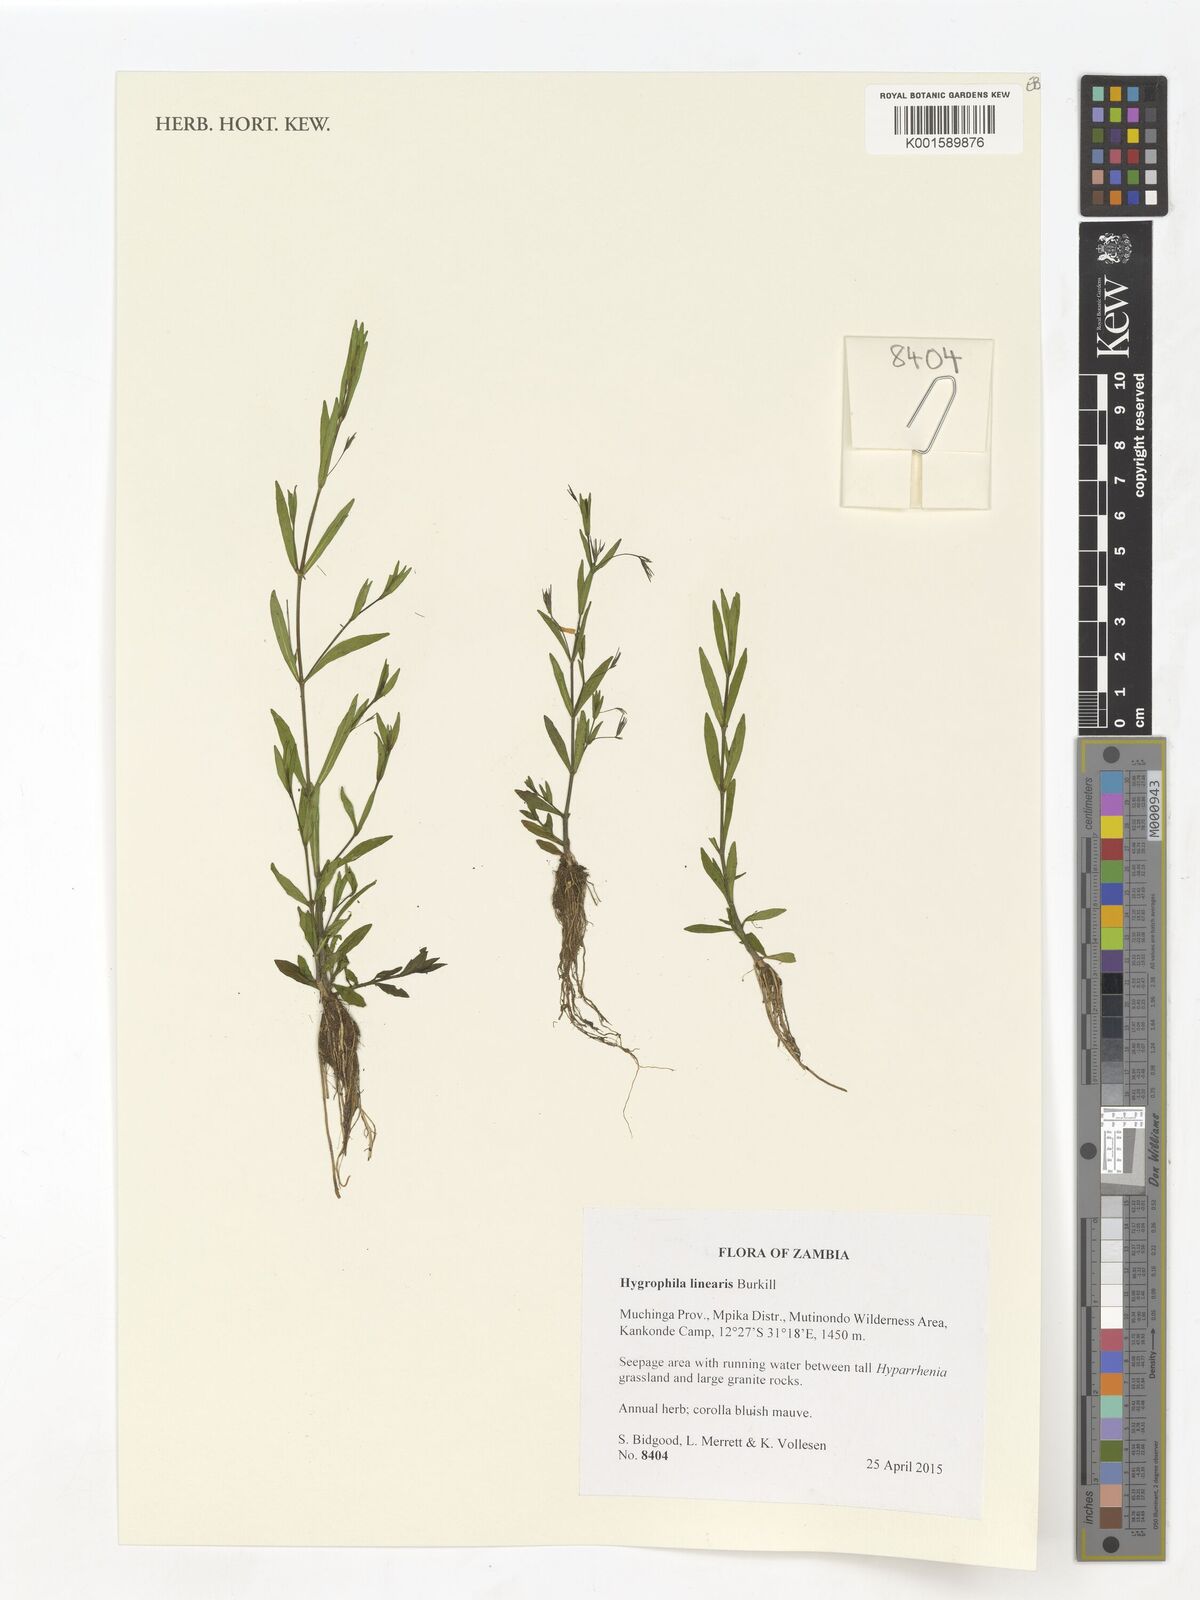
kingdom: Plantae
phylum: Tracheophyta
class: Magnoliopsida
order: Lamiales
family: Acanthaceae
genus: Hygrophila
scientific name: Hygrophila linearis
